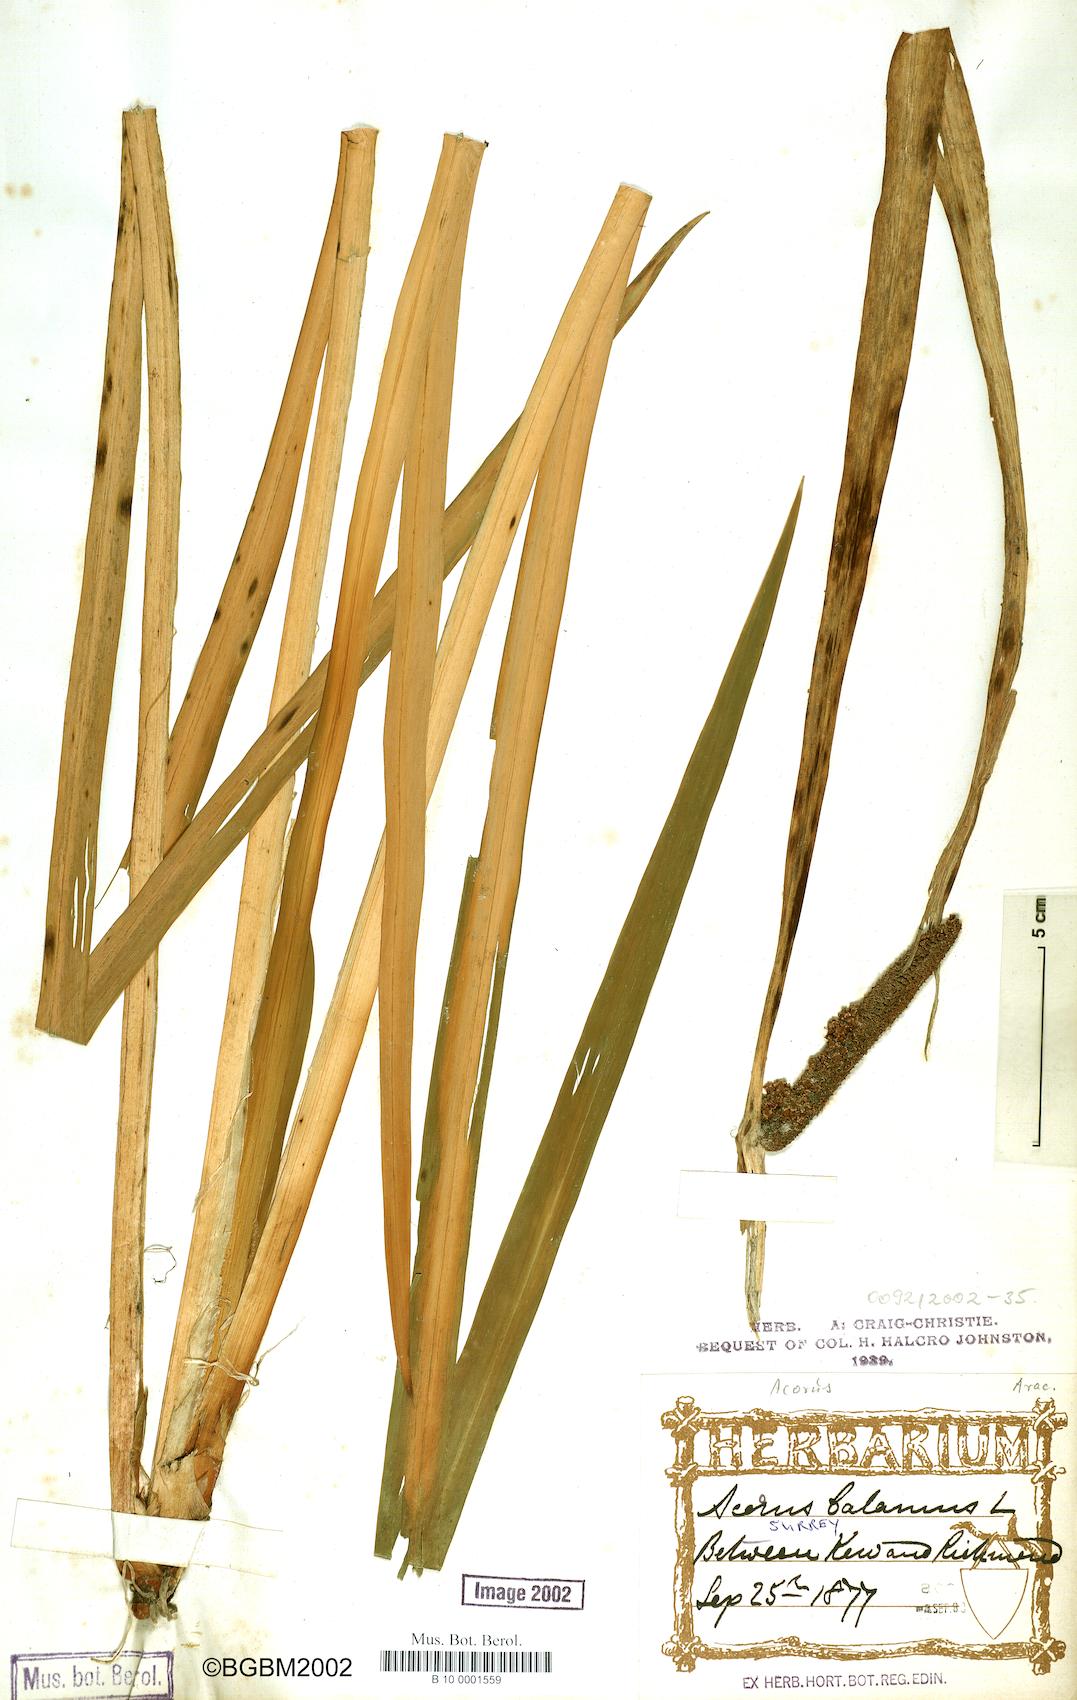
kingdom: Plantae
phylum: Tracheophyta
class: Liliopsida
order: Acorales
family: Acoraceae
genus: Acorus
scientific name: Acorus calamus
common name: Sweet-flag
